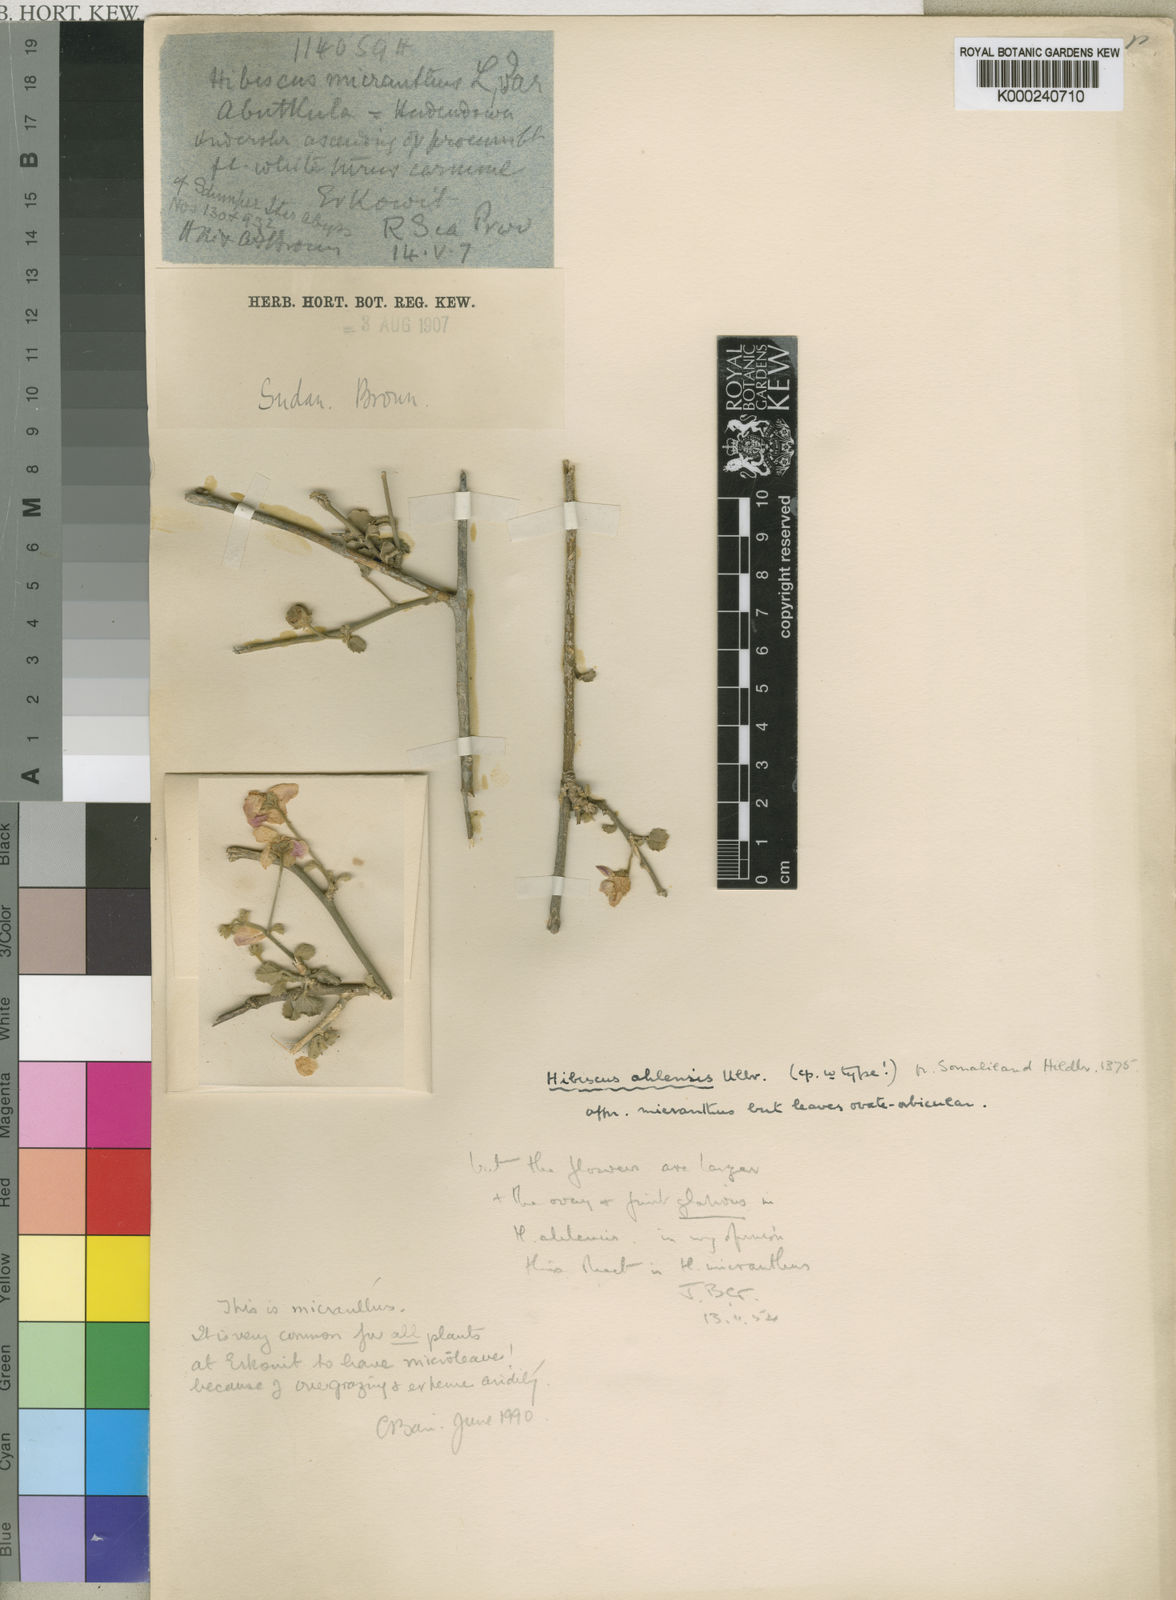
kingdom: Plantae
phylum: Tracheophyta
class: Magnoliopsida
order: Malvales
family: Malvaceae
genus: Hibiscus
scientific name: Hibiscus ahlensis
